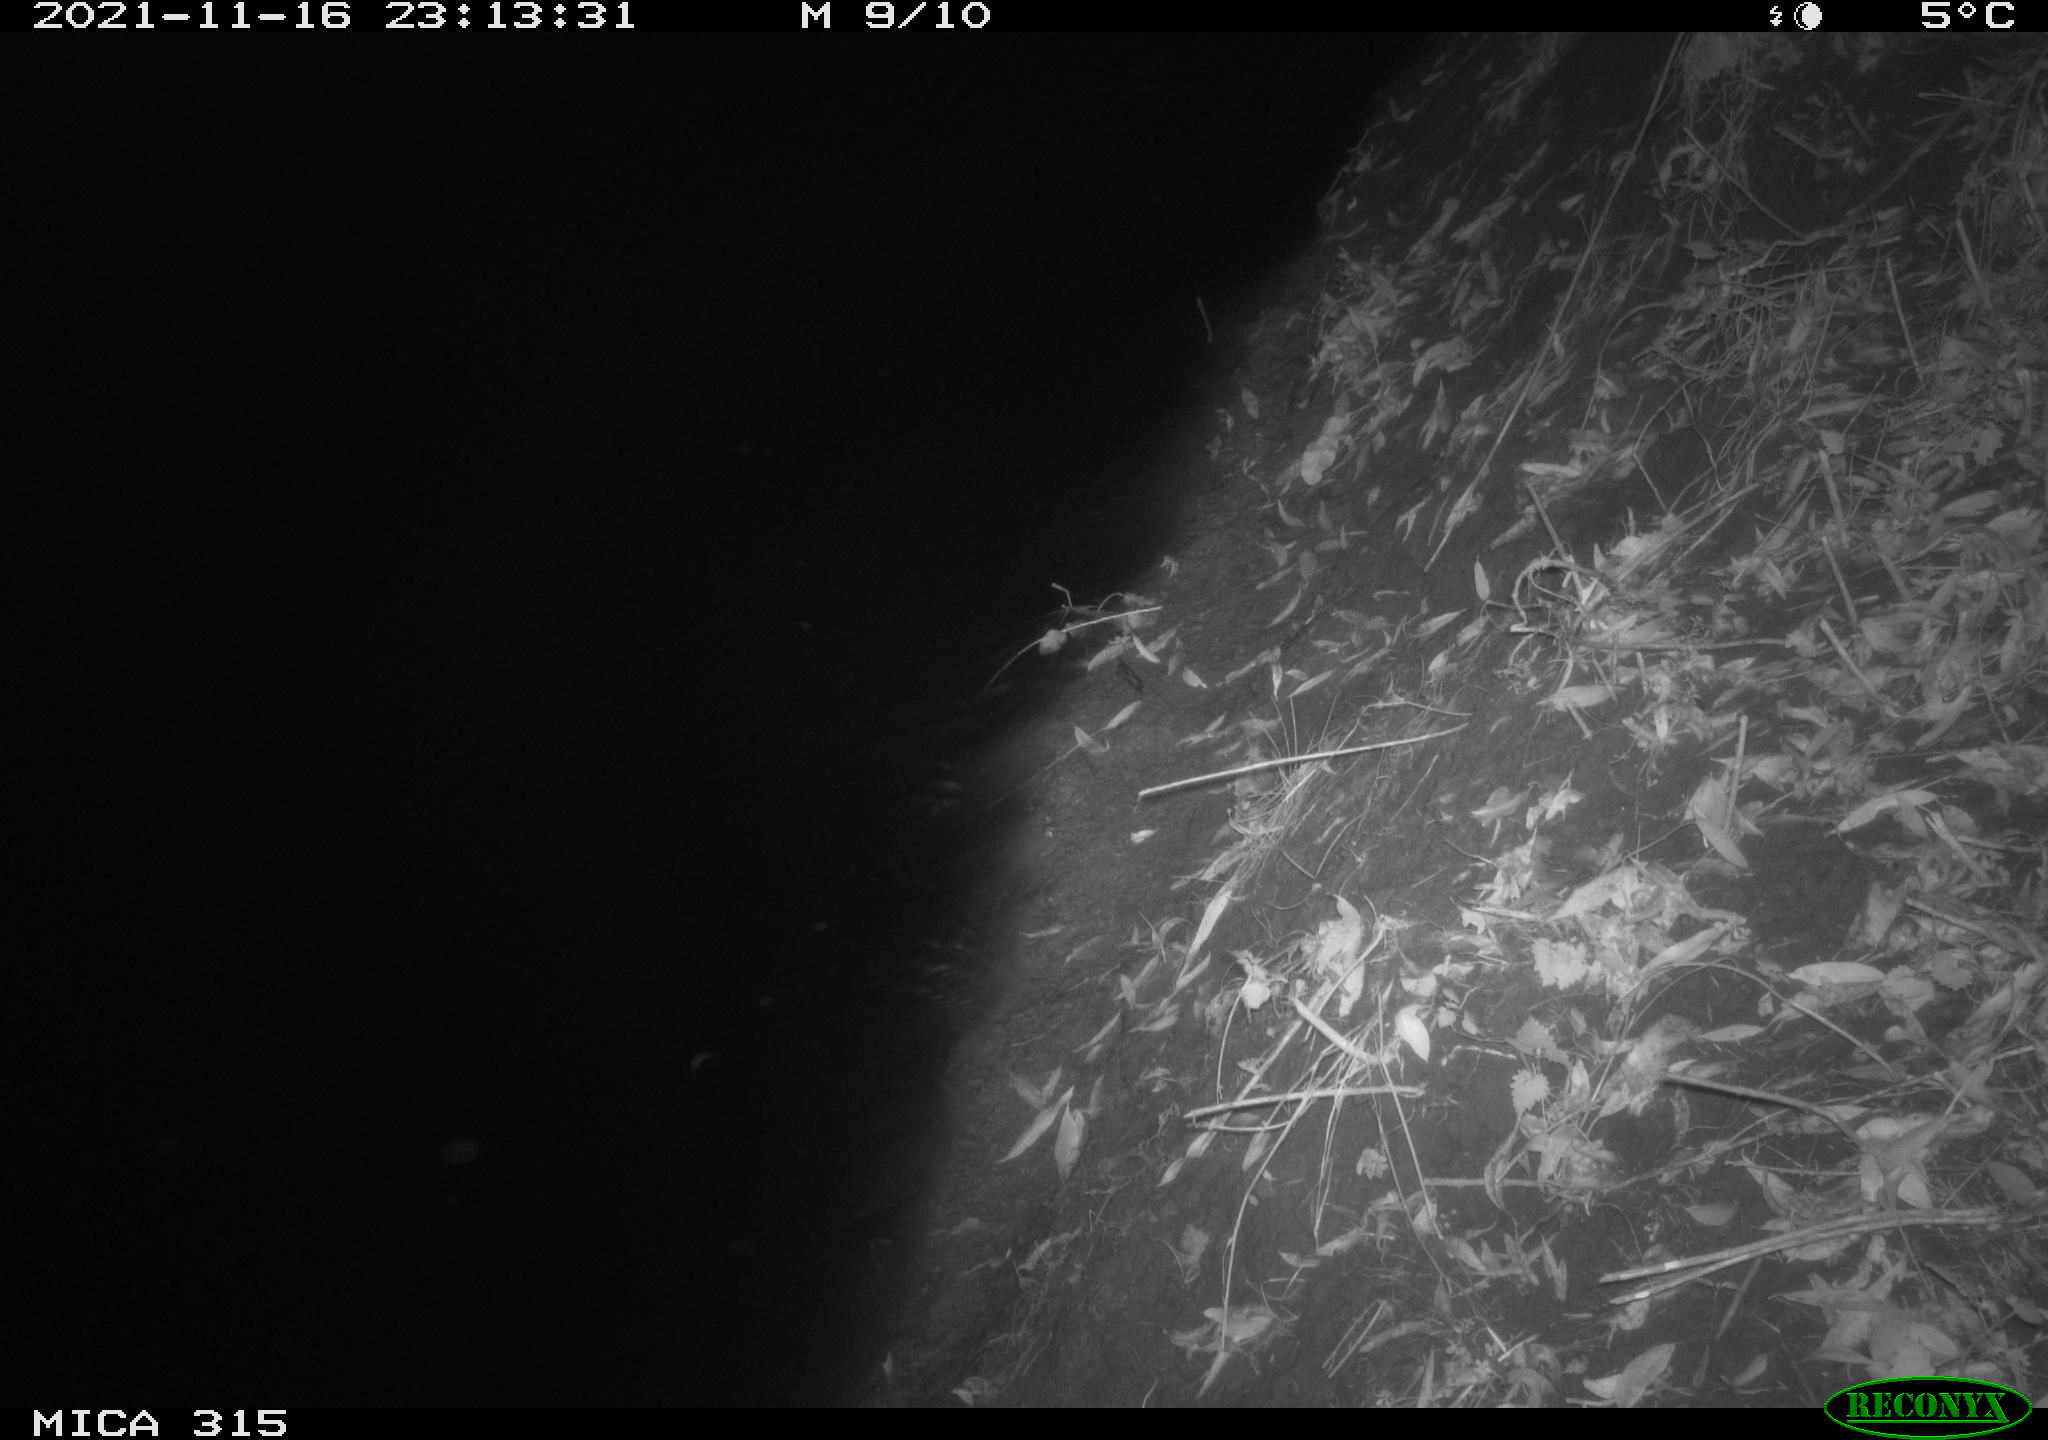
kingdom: Animalia
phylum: Chordata
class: Mammalia
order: Rodentia
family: Muridae
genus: Rattus
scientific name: Rattus norvegicus
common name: Brown rat
